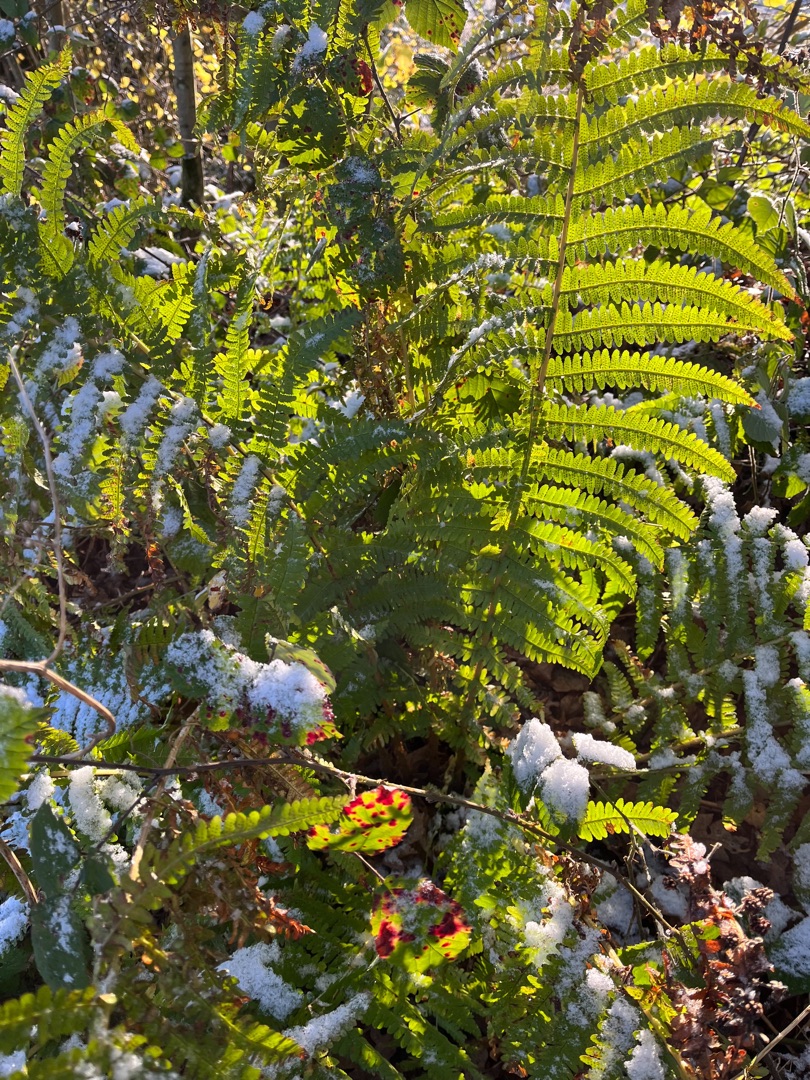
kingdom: Plantae
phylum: Tracheophyta
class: Polypodiopsida
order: Polypodiales
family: Dryopteridaceae
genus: Dryopteris
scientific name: Dryopteris filix-mas
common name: Almindelig mangeløv
